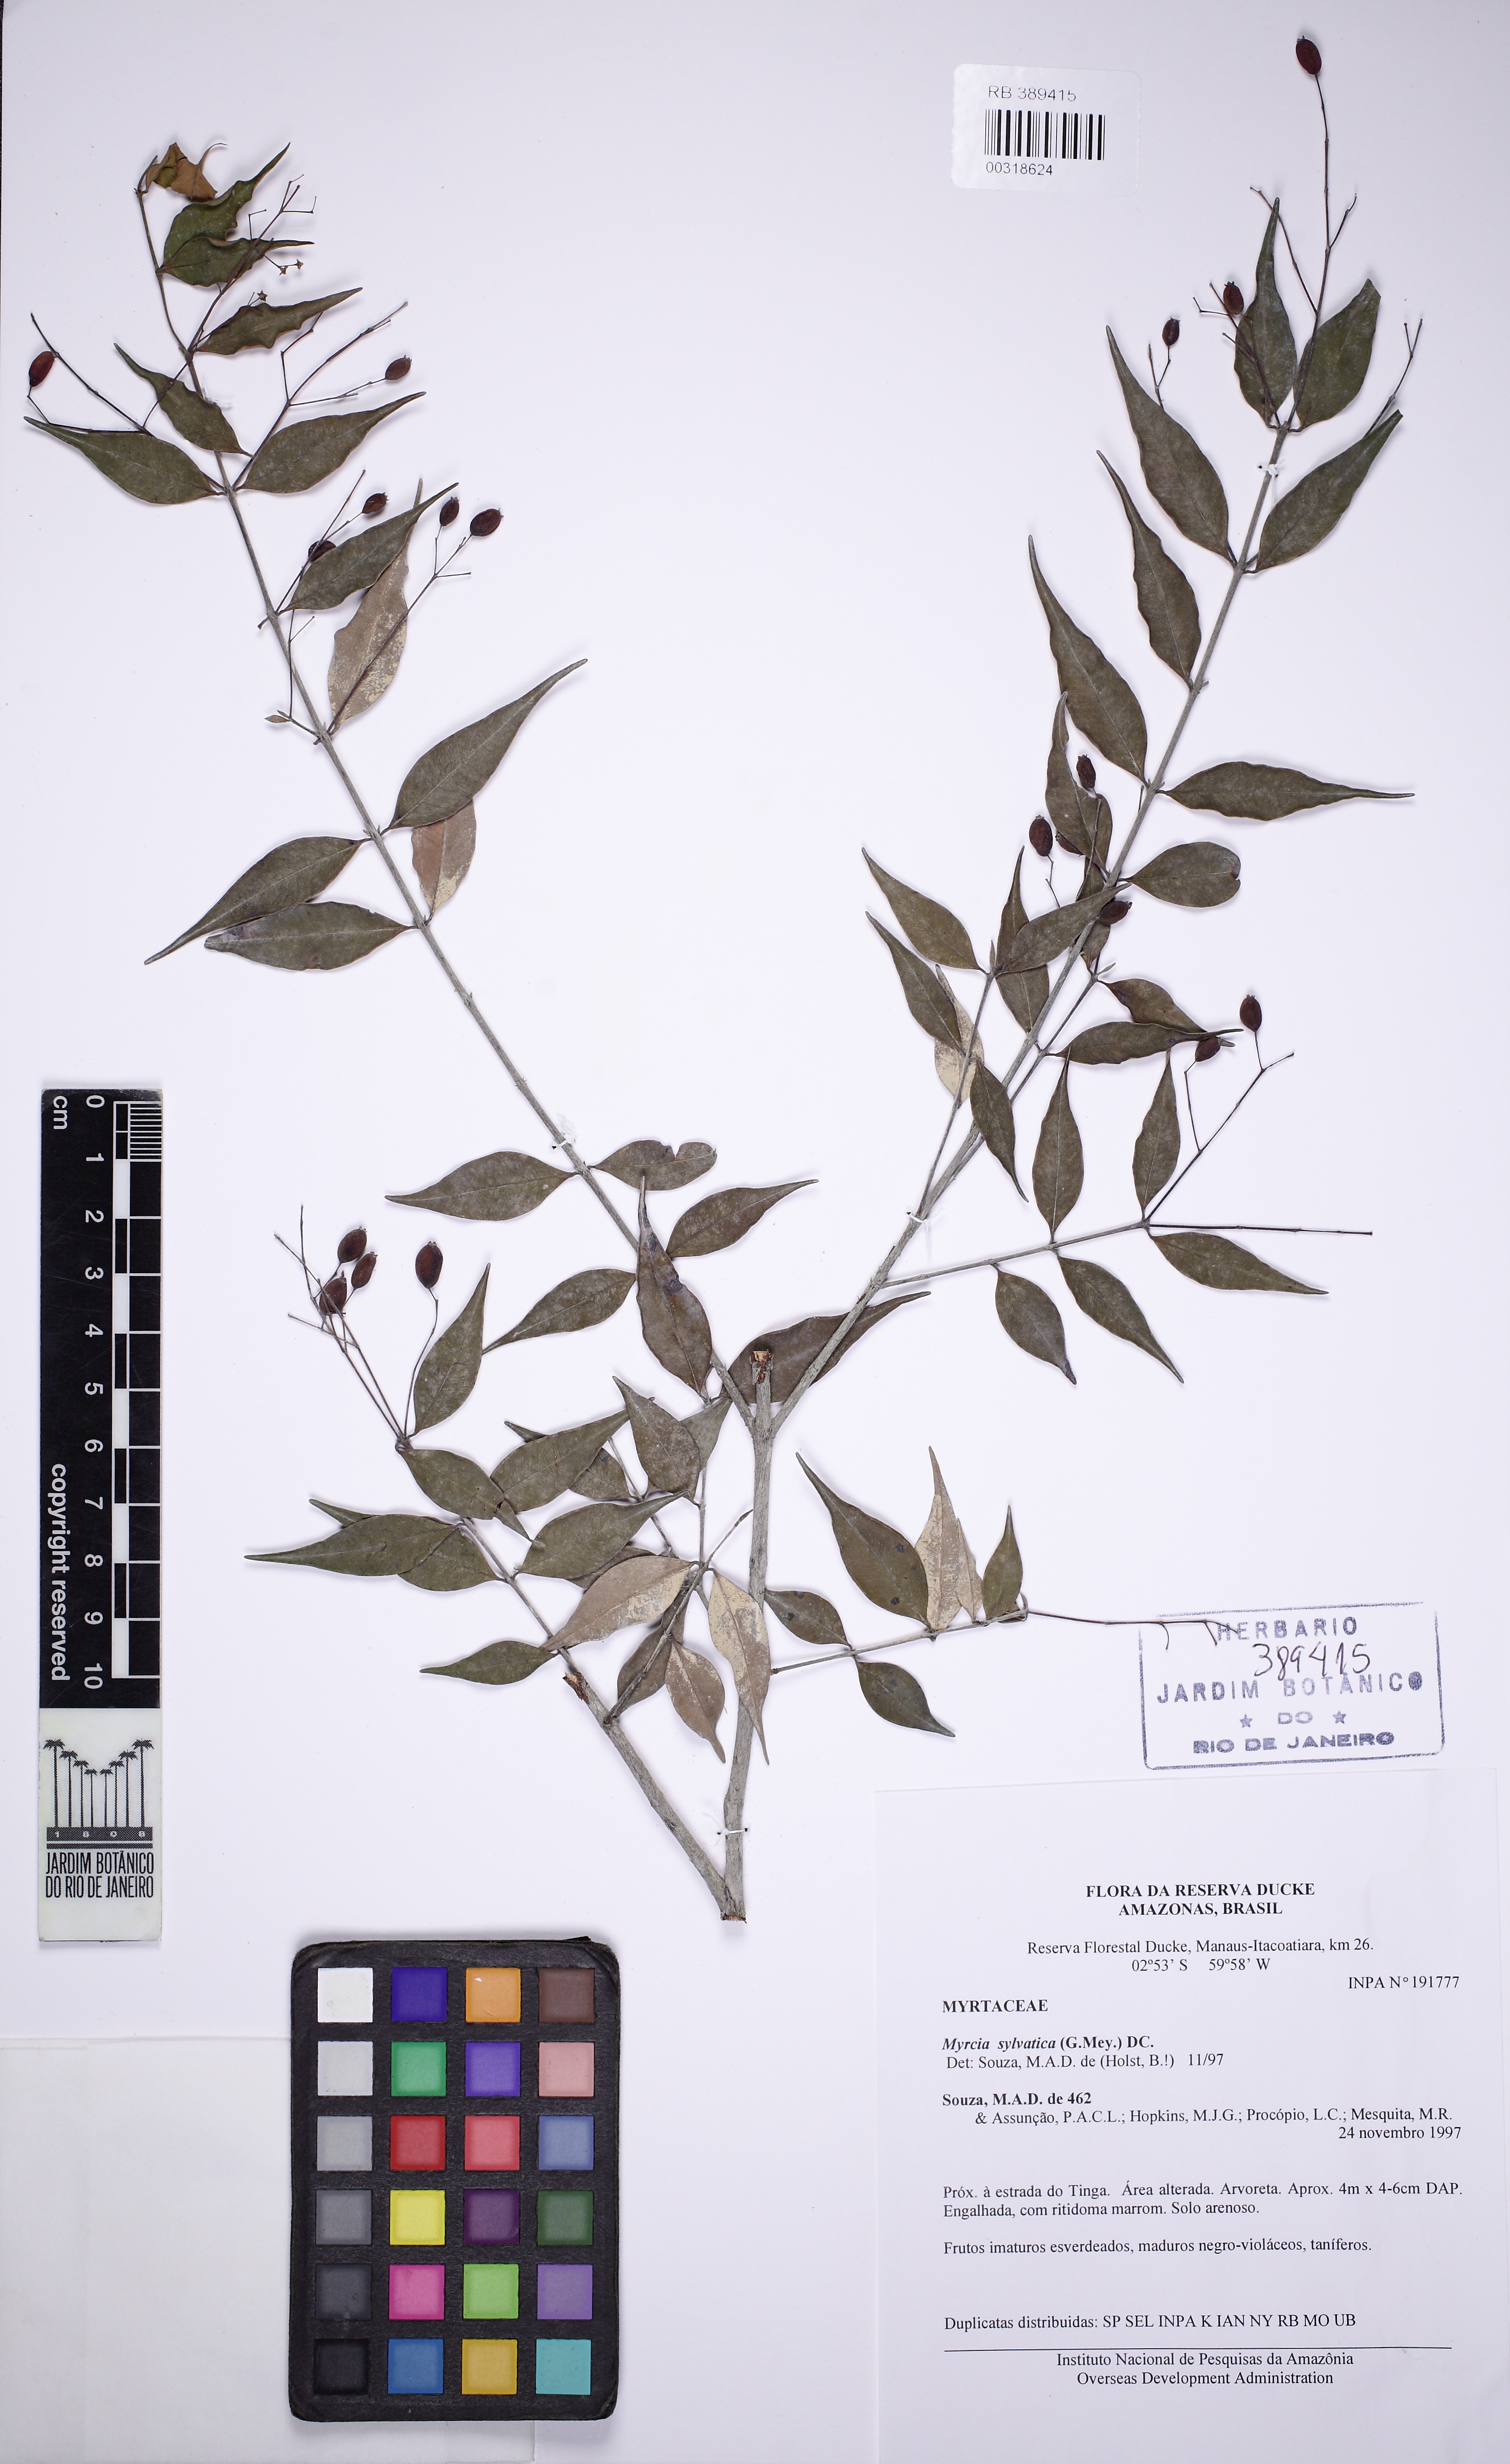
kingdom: Plantae
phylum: Tracheophyta
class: Magnoliopsida
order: Myrtales
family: Myrtaceae
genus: Myrcia
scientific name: Myrcia sylvatica
